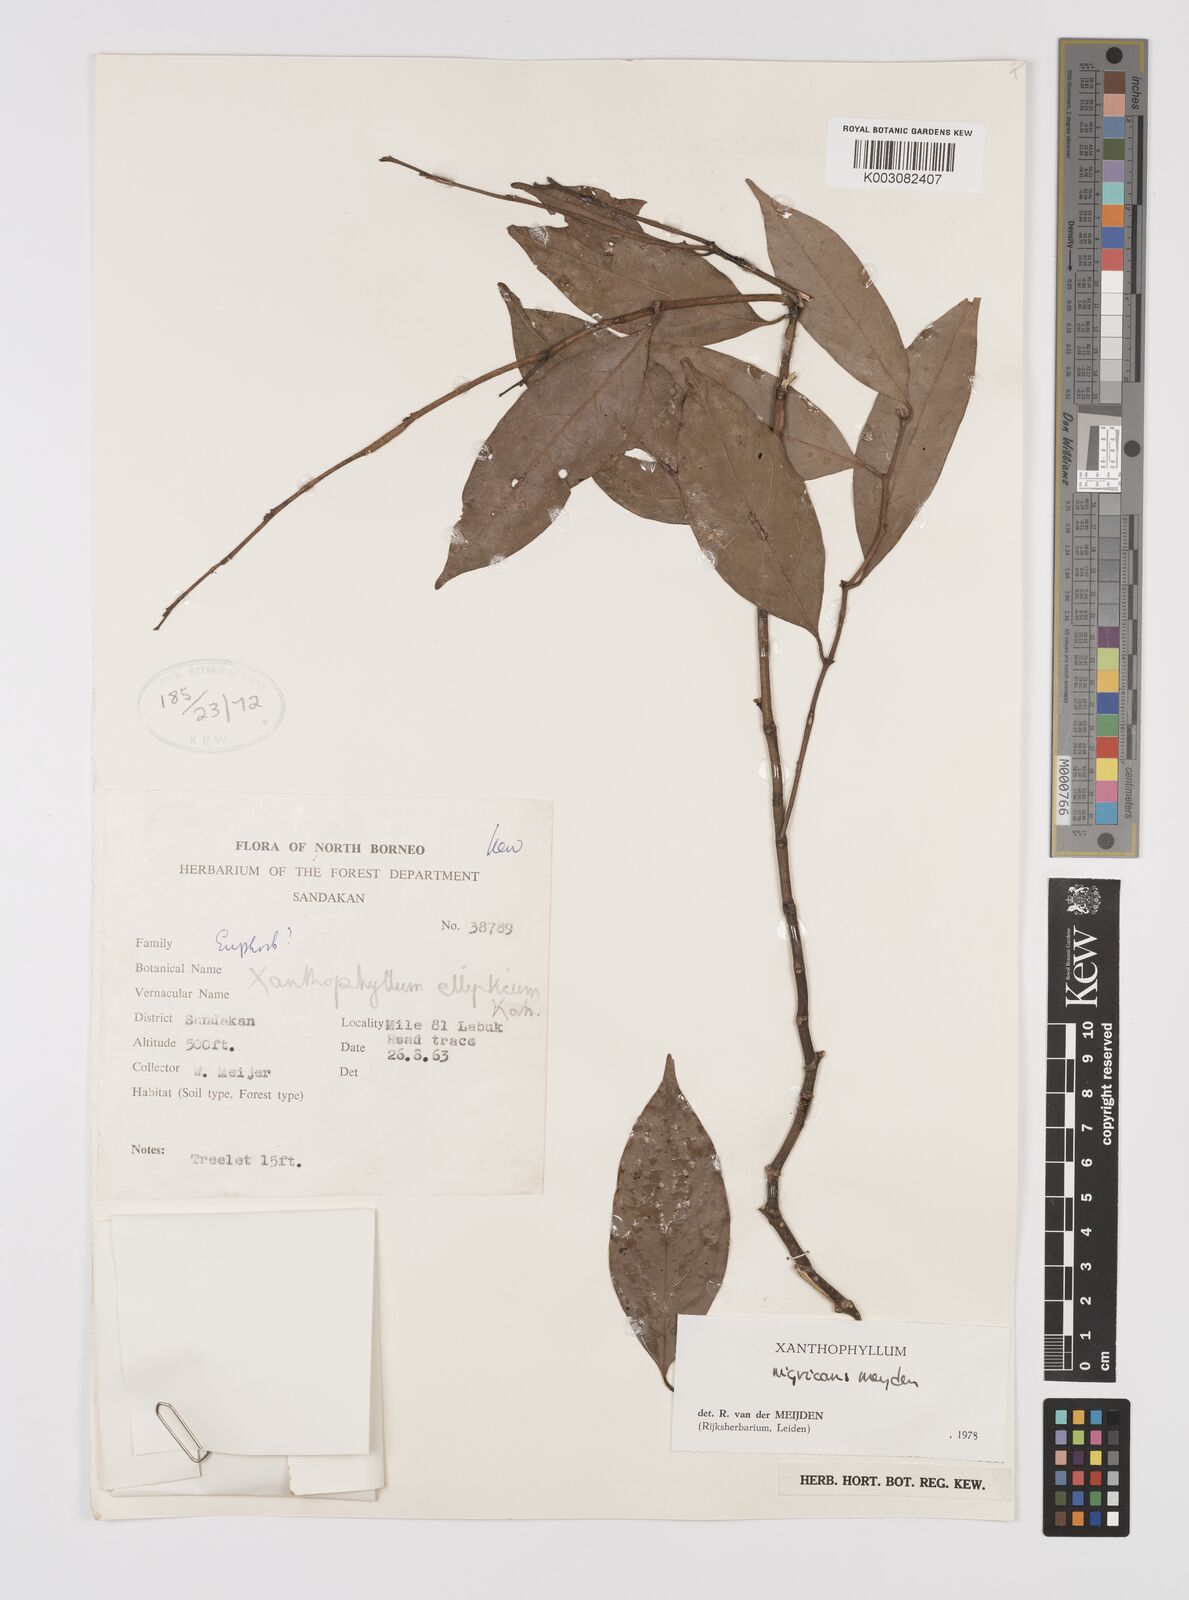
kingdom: Plantae
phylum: Tracheophyta
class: Magnoliopsida
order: Fabales
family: Polygalaceae
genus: Xanthophyllum
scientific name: Xanthophyllum nigricans
